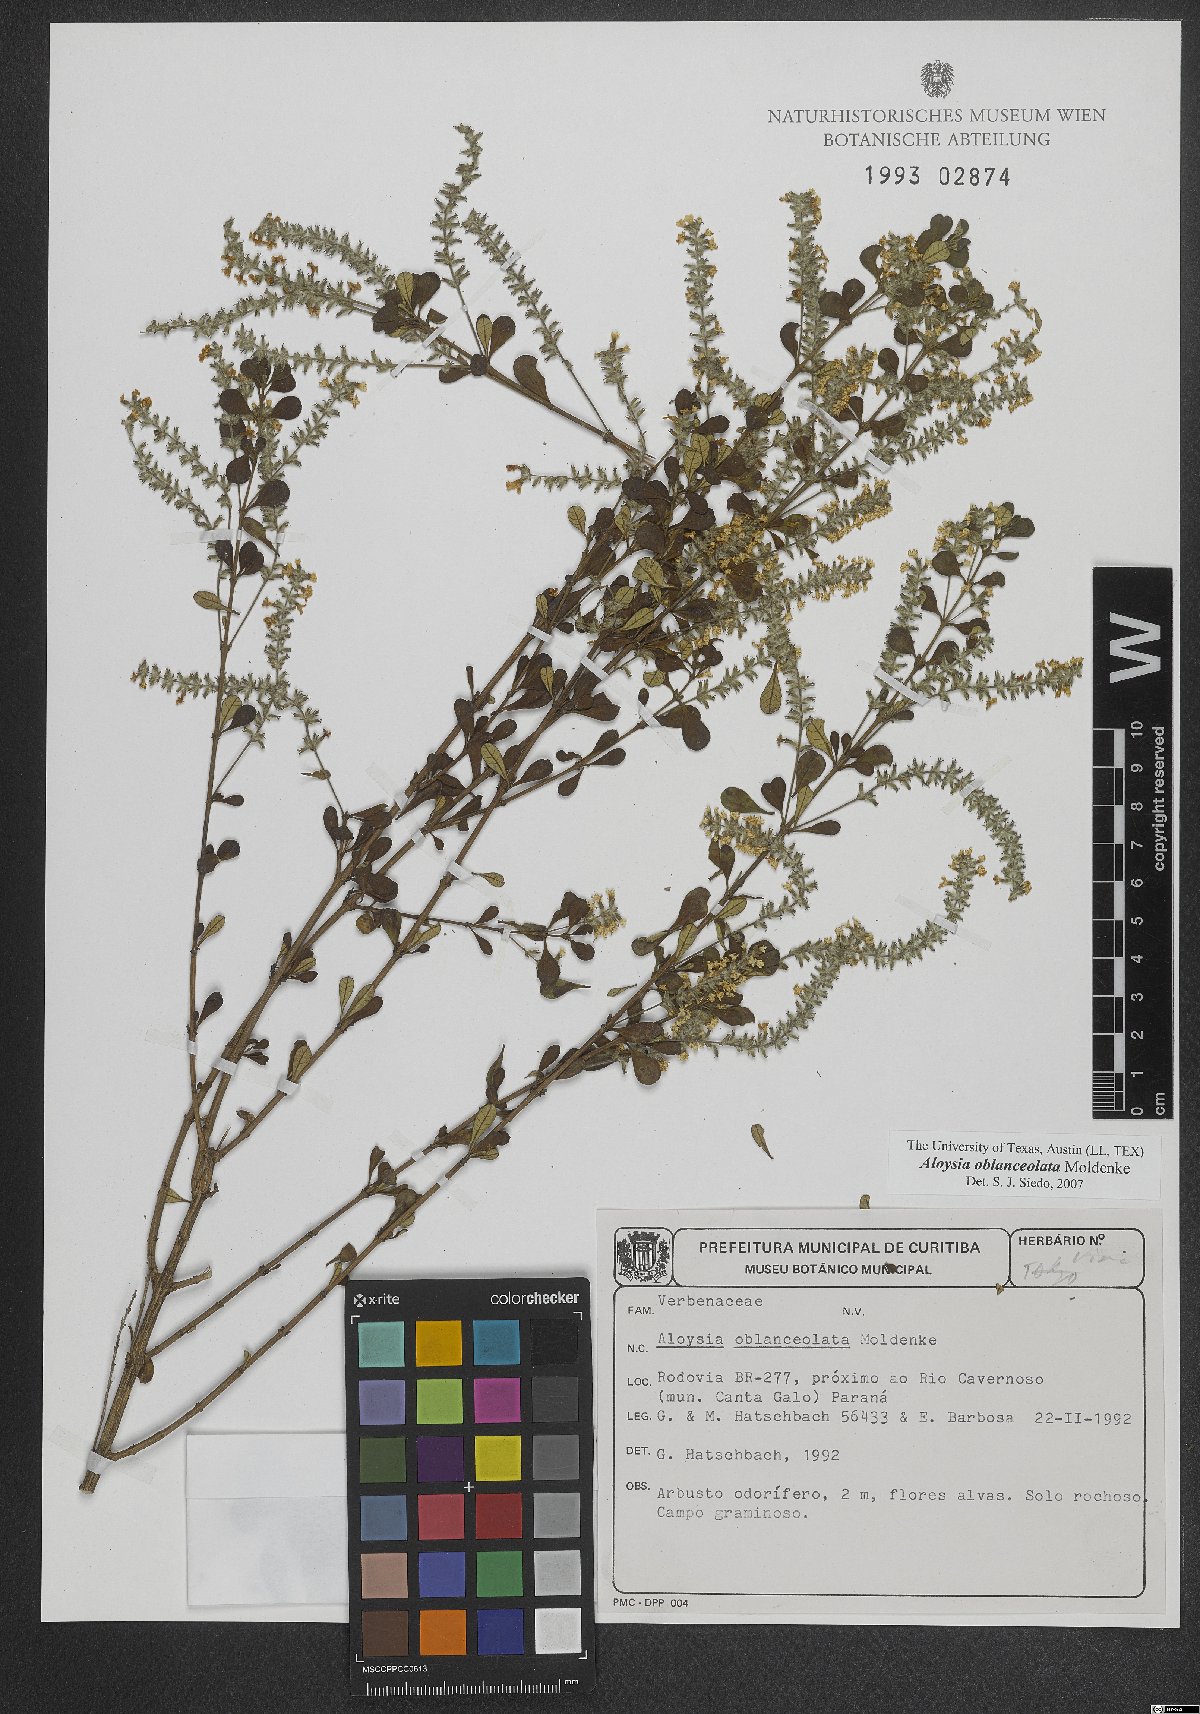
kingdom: Plantae
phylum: Tracheophyta
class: Magnoliopsida
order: Lamiales
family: Verbenaceae
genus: Aloysia
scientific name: Aloysia oblanceolata
